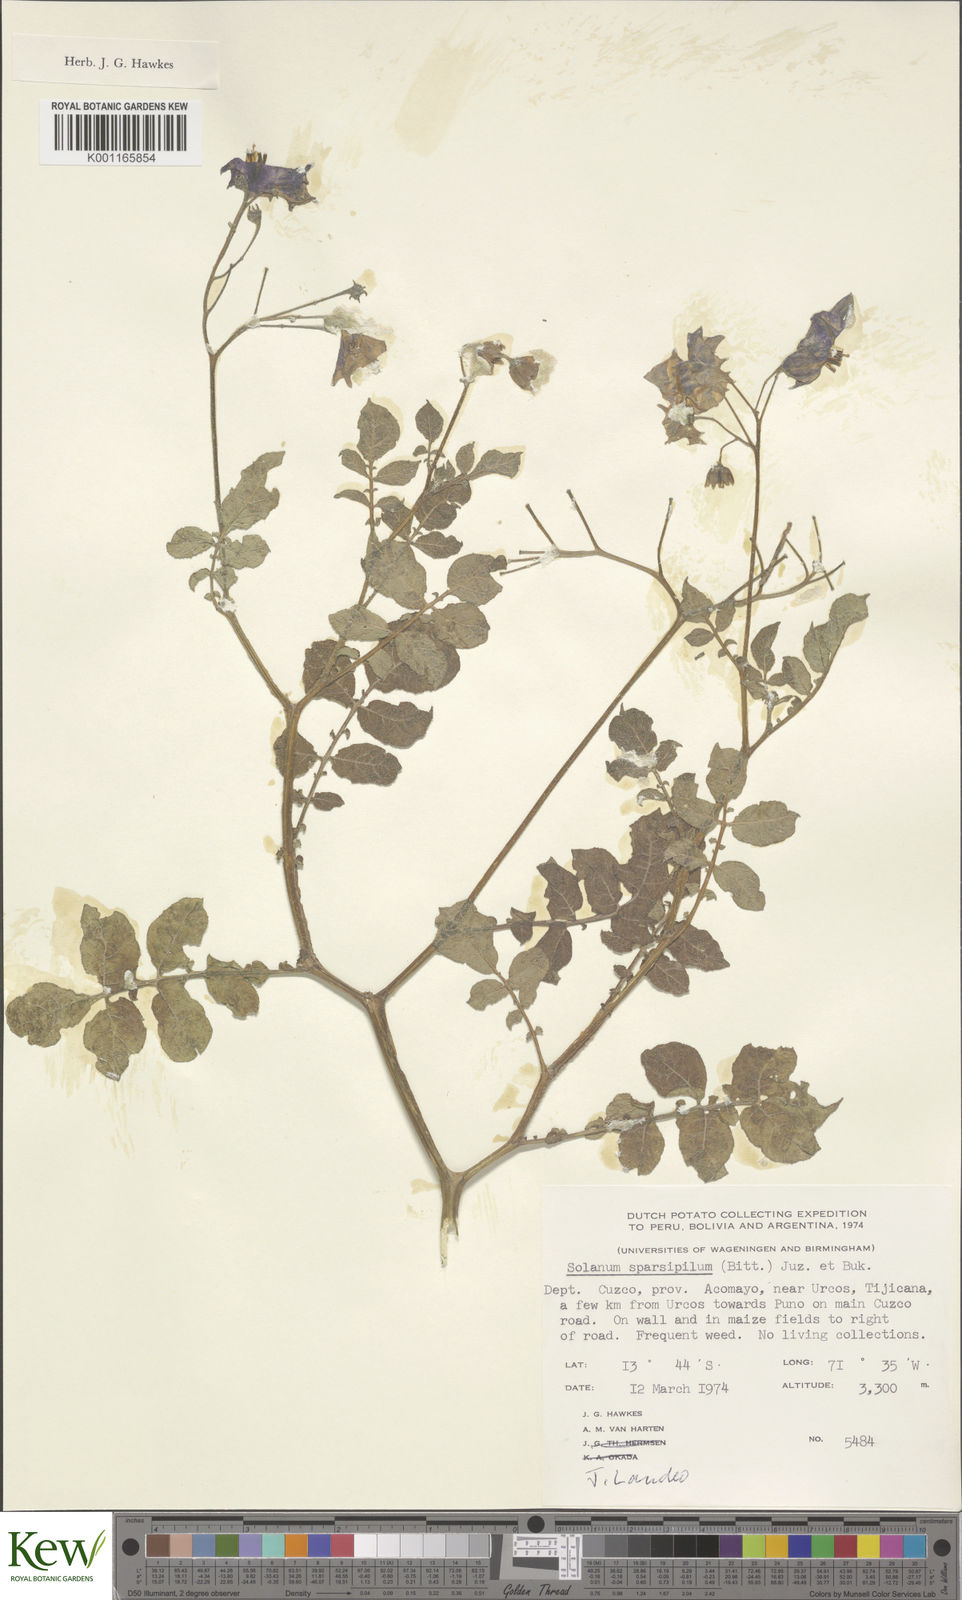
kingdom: Plantae
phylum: Tracheophyta
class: Magnoliopsida
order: Solanales
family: Solanaceae
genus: Solanum
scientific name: Solanum brevicaule
